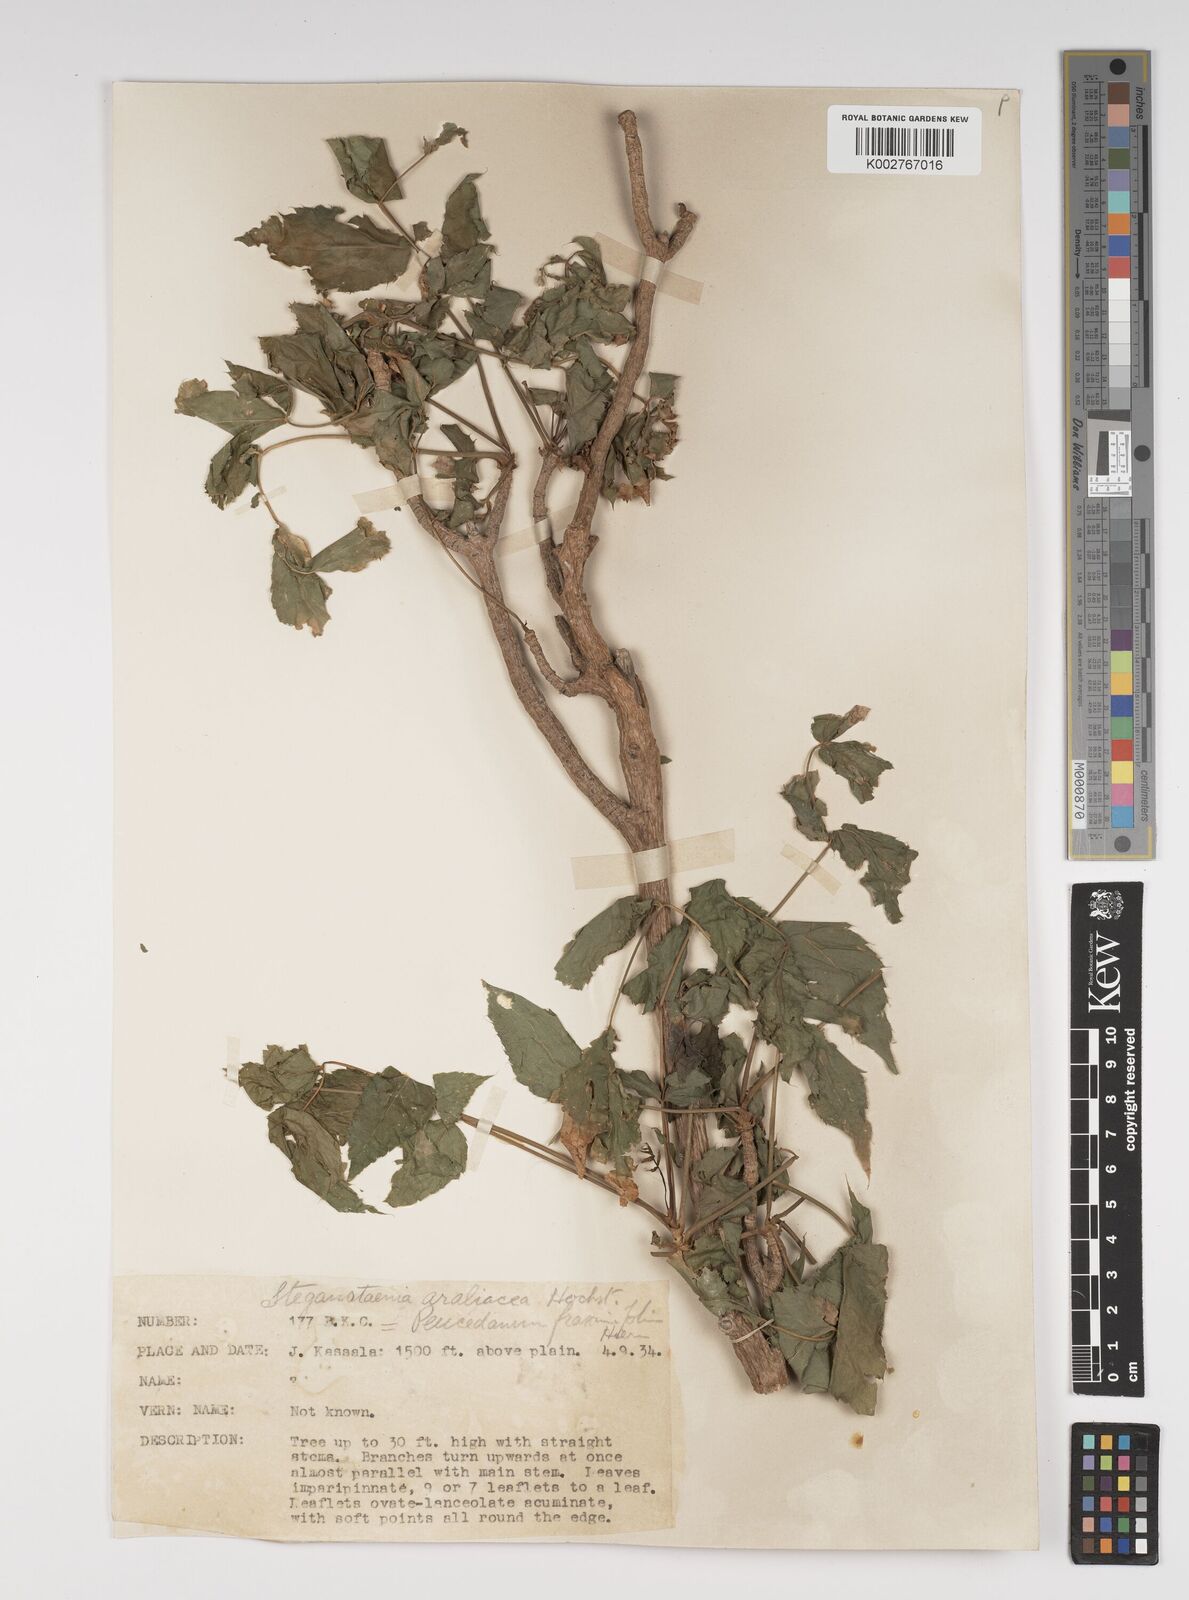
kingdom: Plantae
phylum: Tracheophyta
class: Magnoliopsida
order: Apiales
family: Apiaceae
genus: Steganotaenia
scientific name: Steganotaenia
